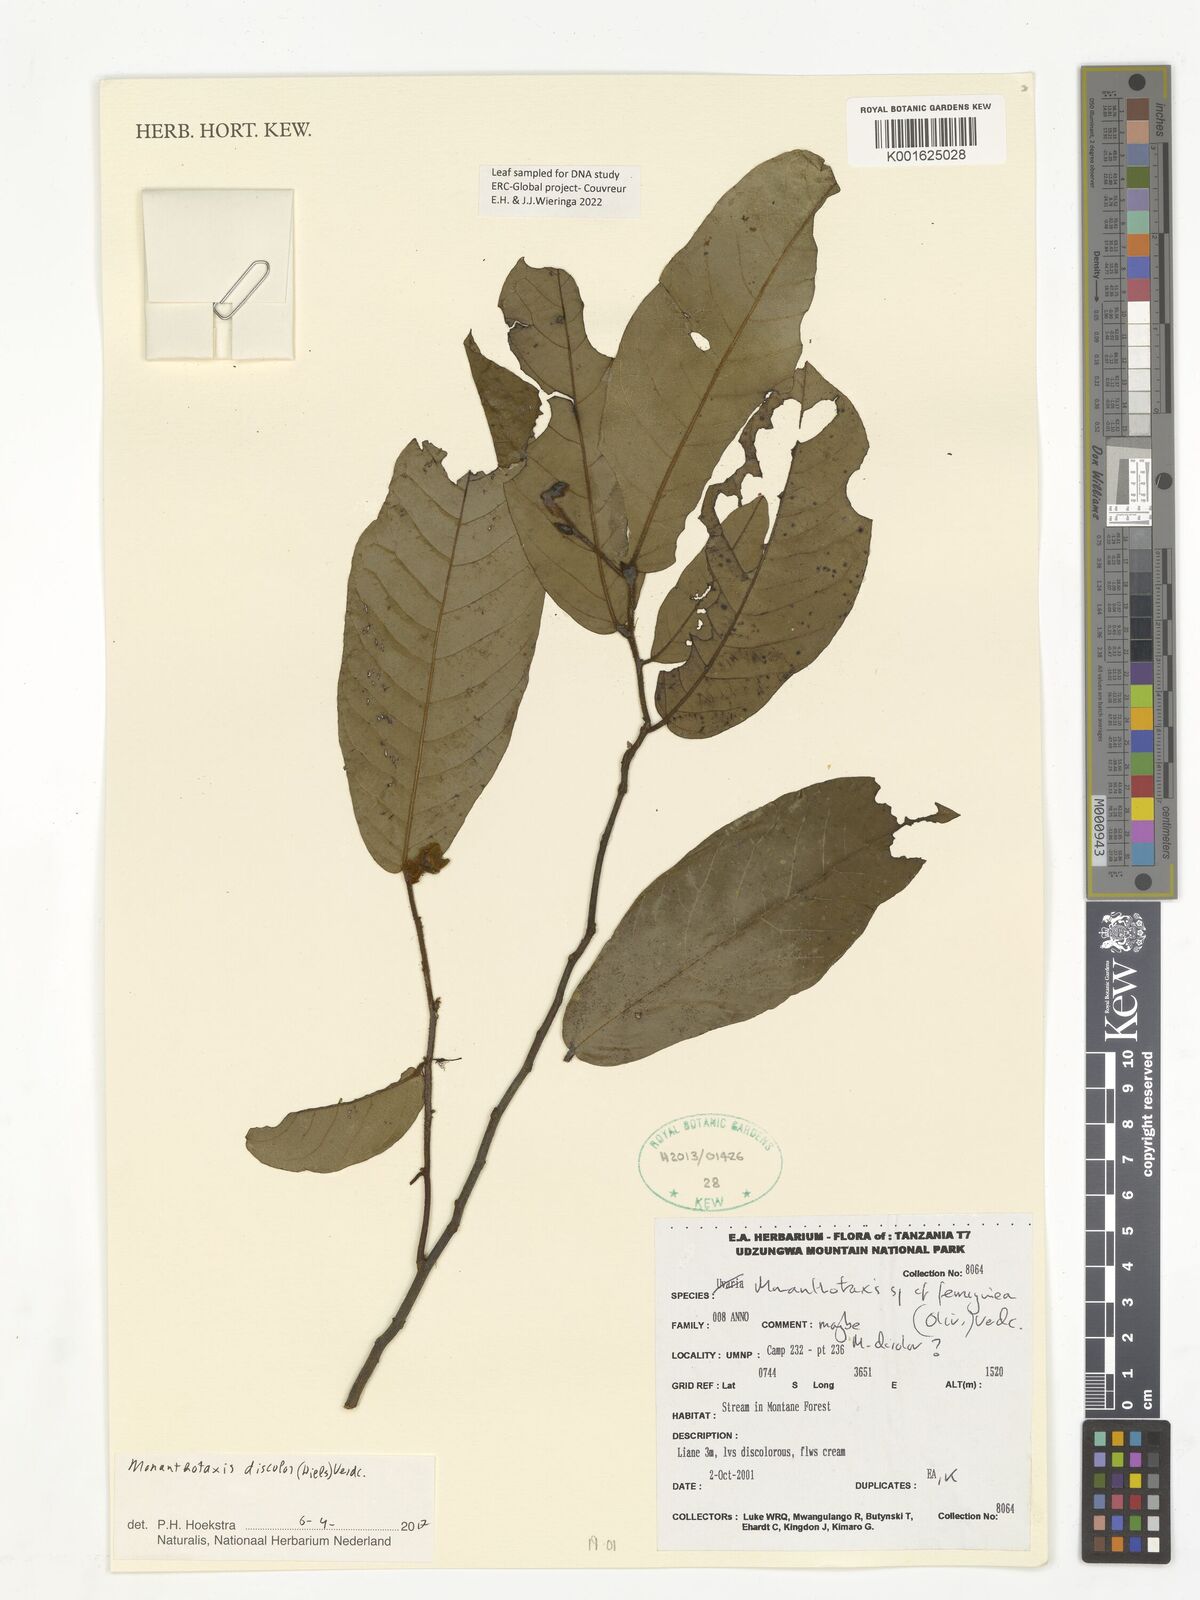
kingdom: Plantae
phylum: Tracheophyta
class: Magnoliopsida
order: Magnoliales
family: Annonaceae
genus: Monanthotaxis
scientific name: Monanthotaxis discolor
